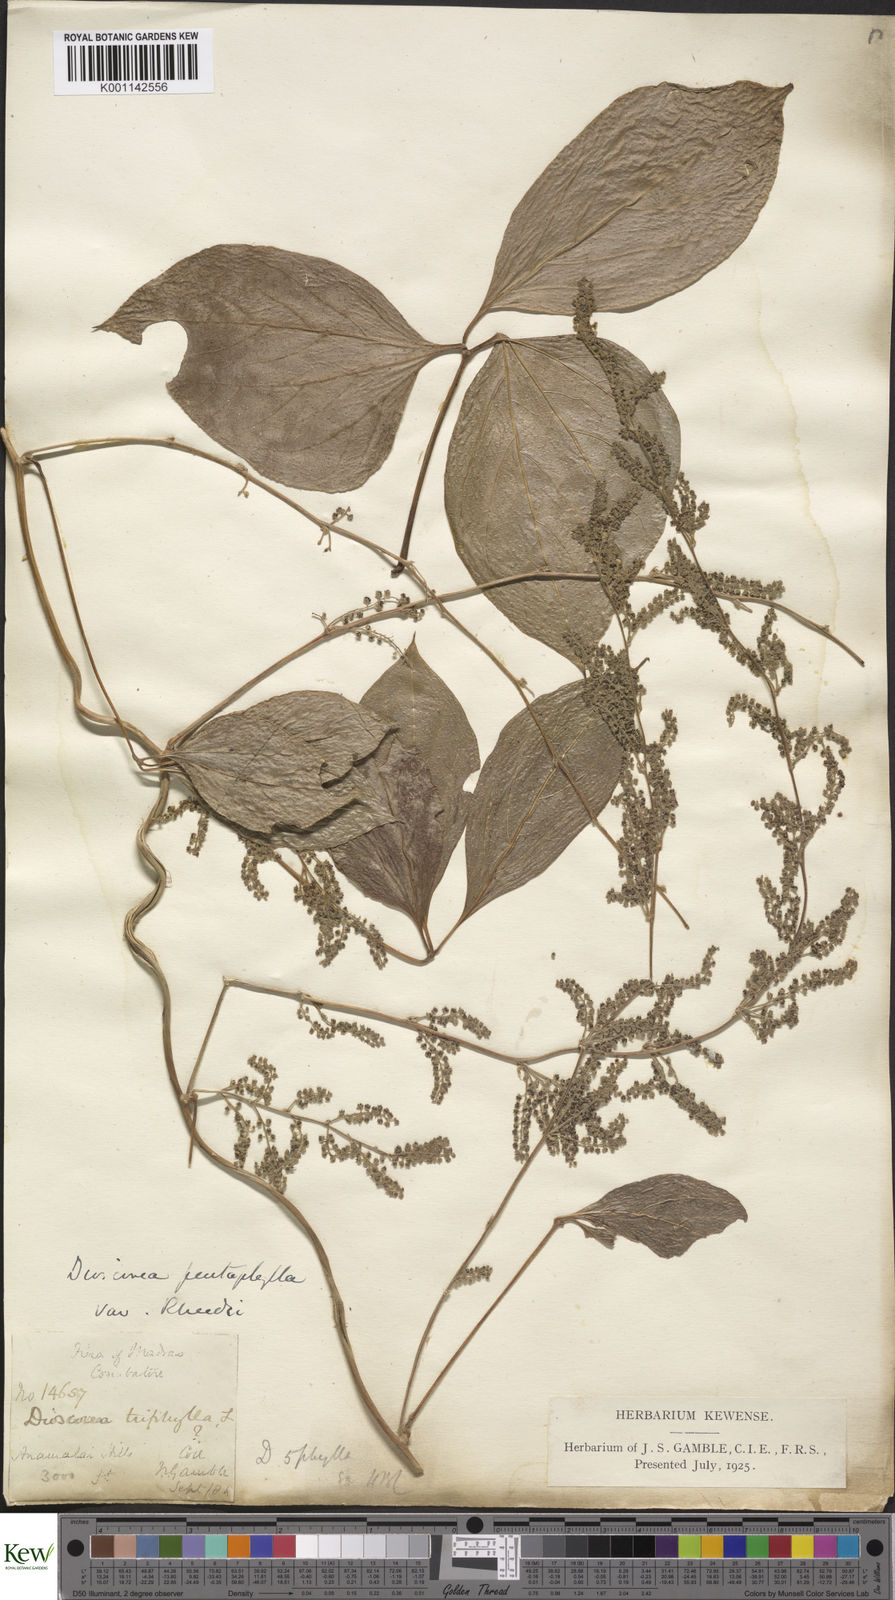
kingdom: Plantae
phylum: Tracheophyta
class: Liliopsida
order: Dioscoreales
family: Dioscoreaceae
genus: Dioscorea
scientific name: Dioscorea pentaphylla
